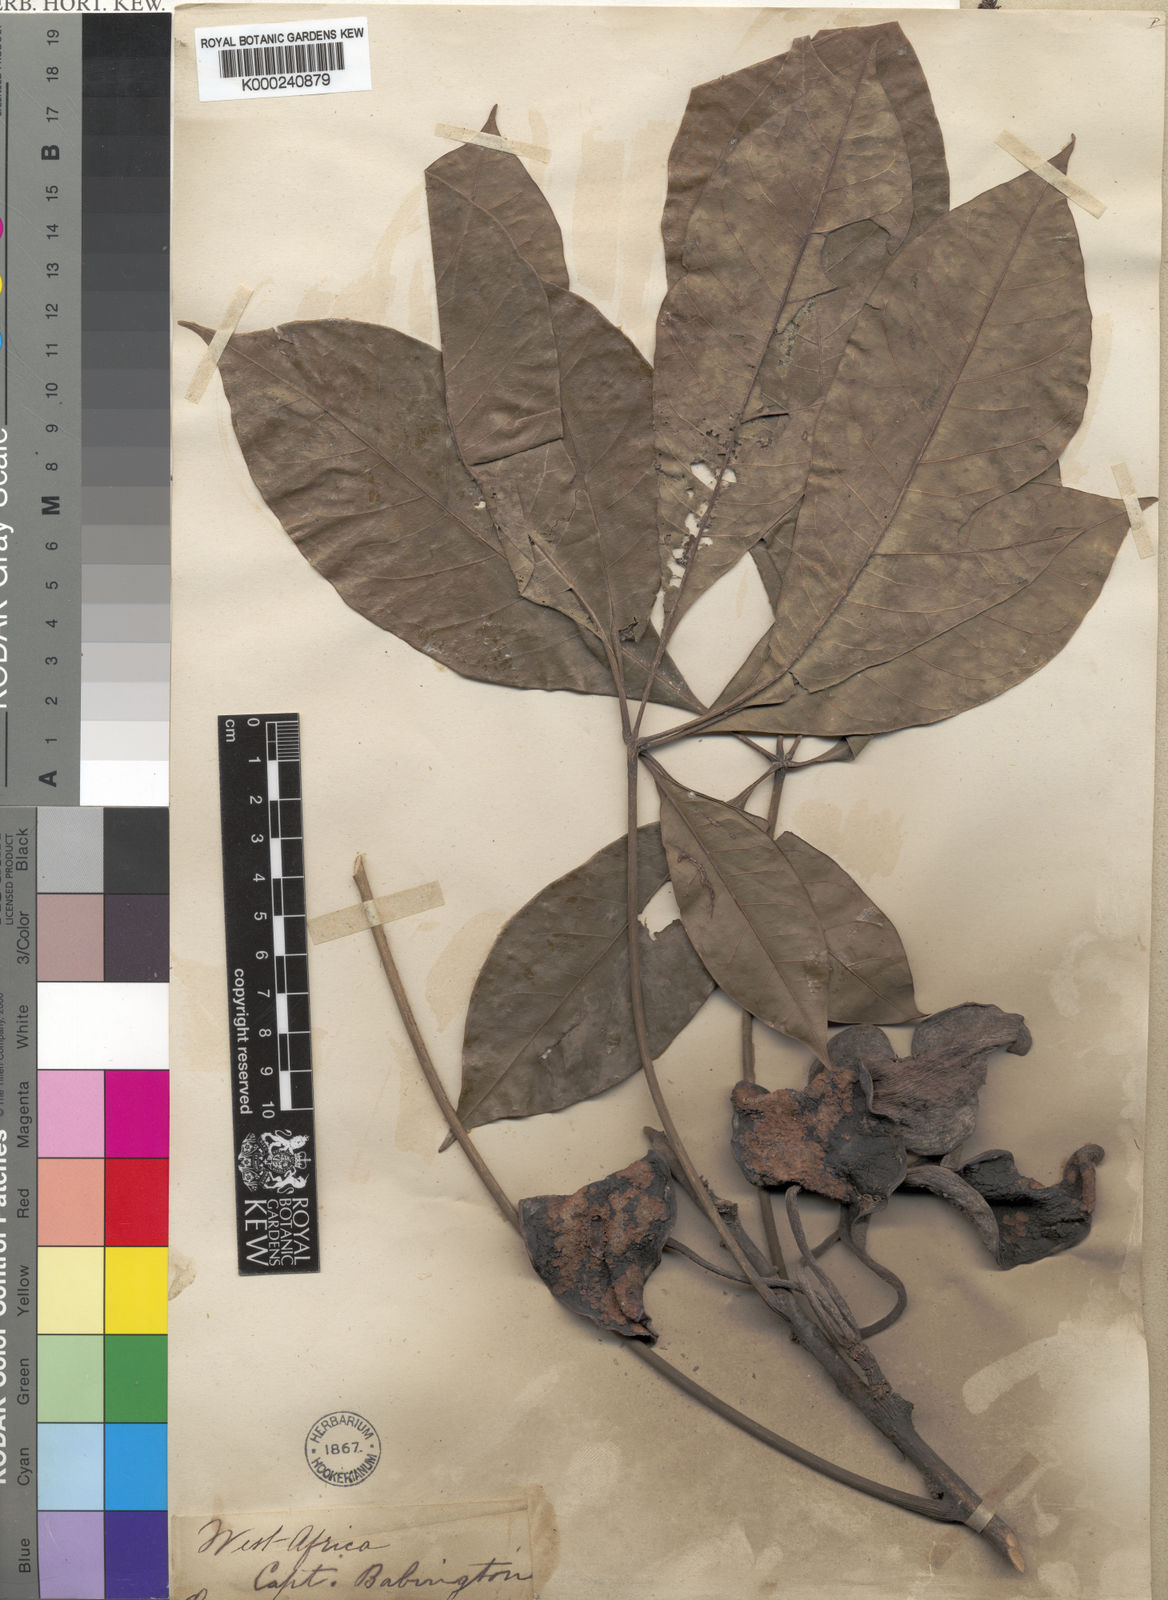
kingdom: Plantae
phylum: Tracheophyta
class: Magnoliopsida
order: Malvales
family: Malvaceae
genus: Cola
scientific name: Cola digitata
